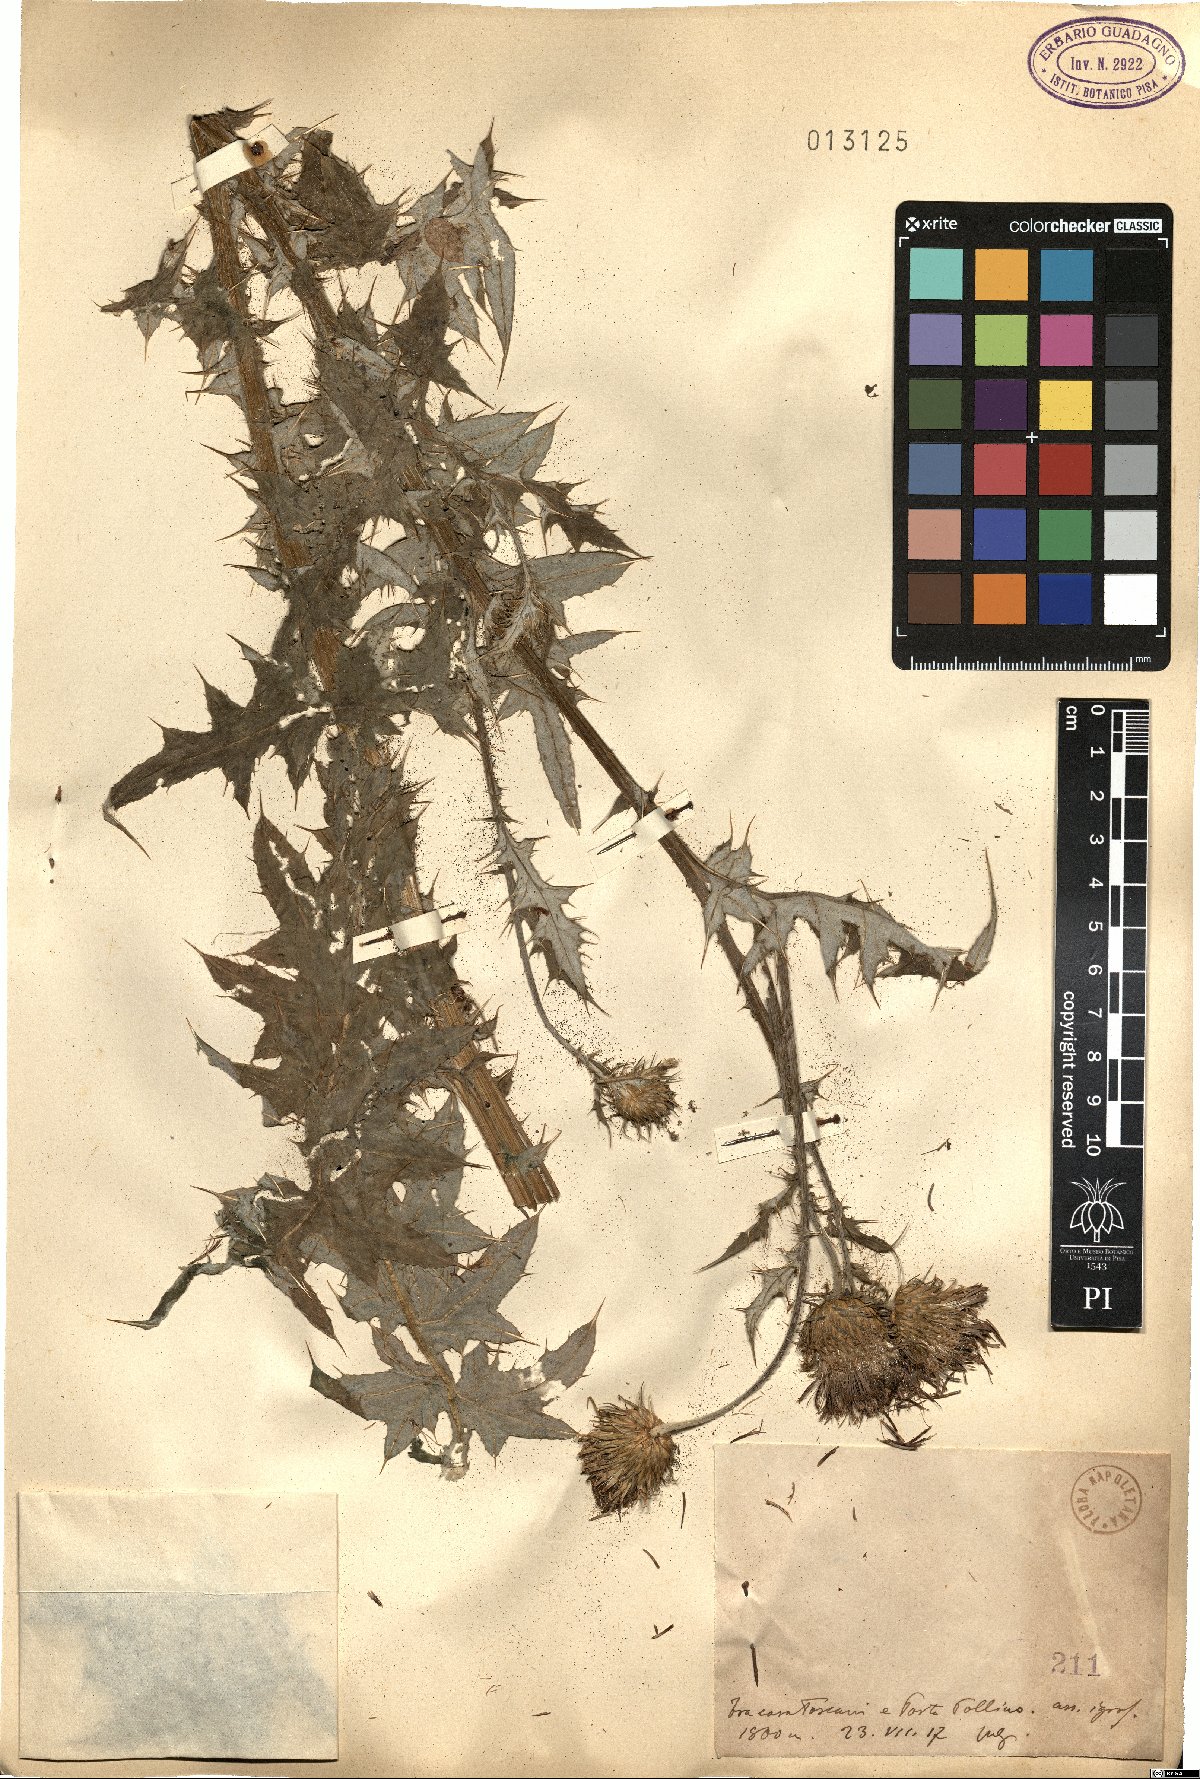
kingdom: Plantae
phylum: Tracheophyta
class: Magnoliopsida
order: Asterales
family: Asteraceae
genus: Cirsium
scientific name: Cirsium
